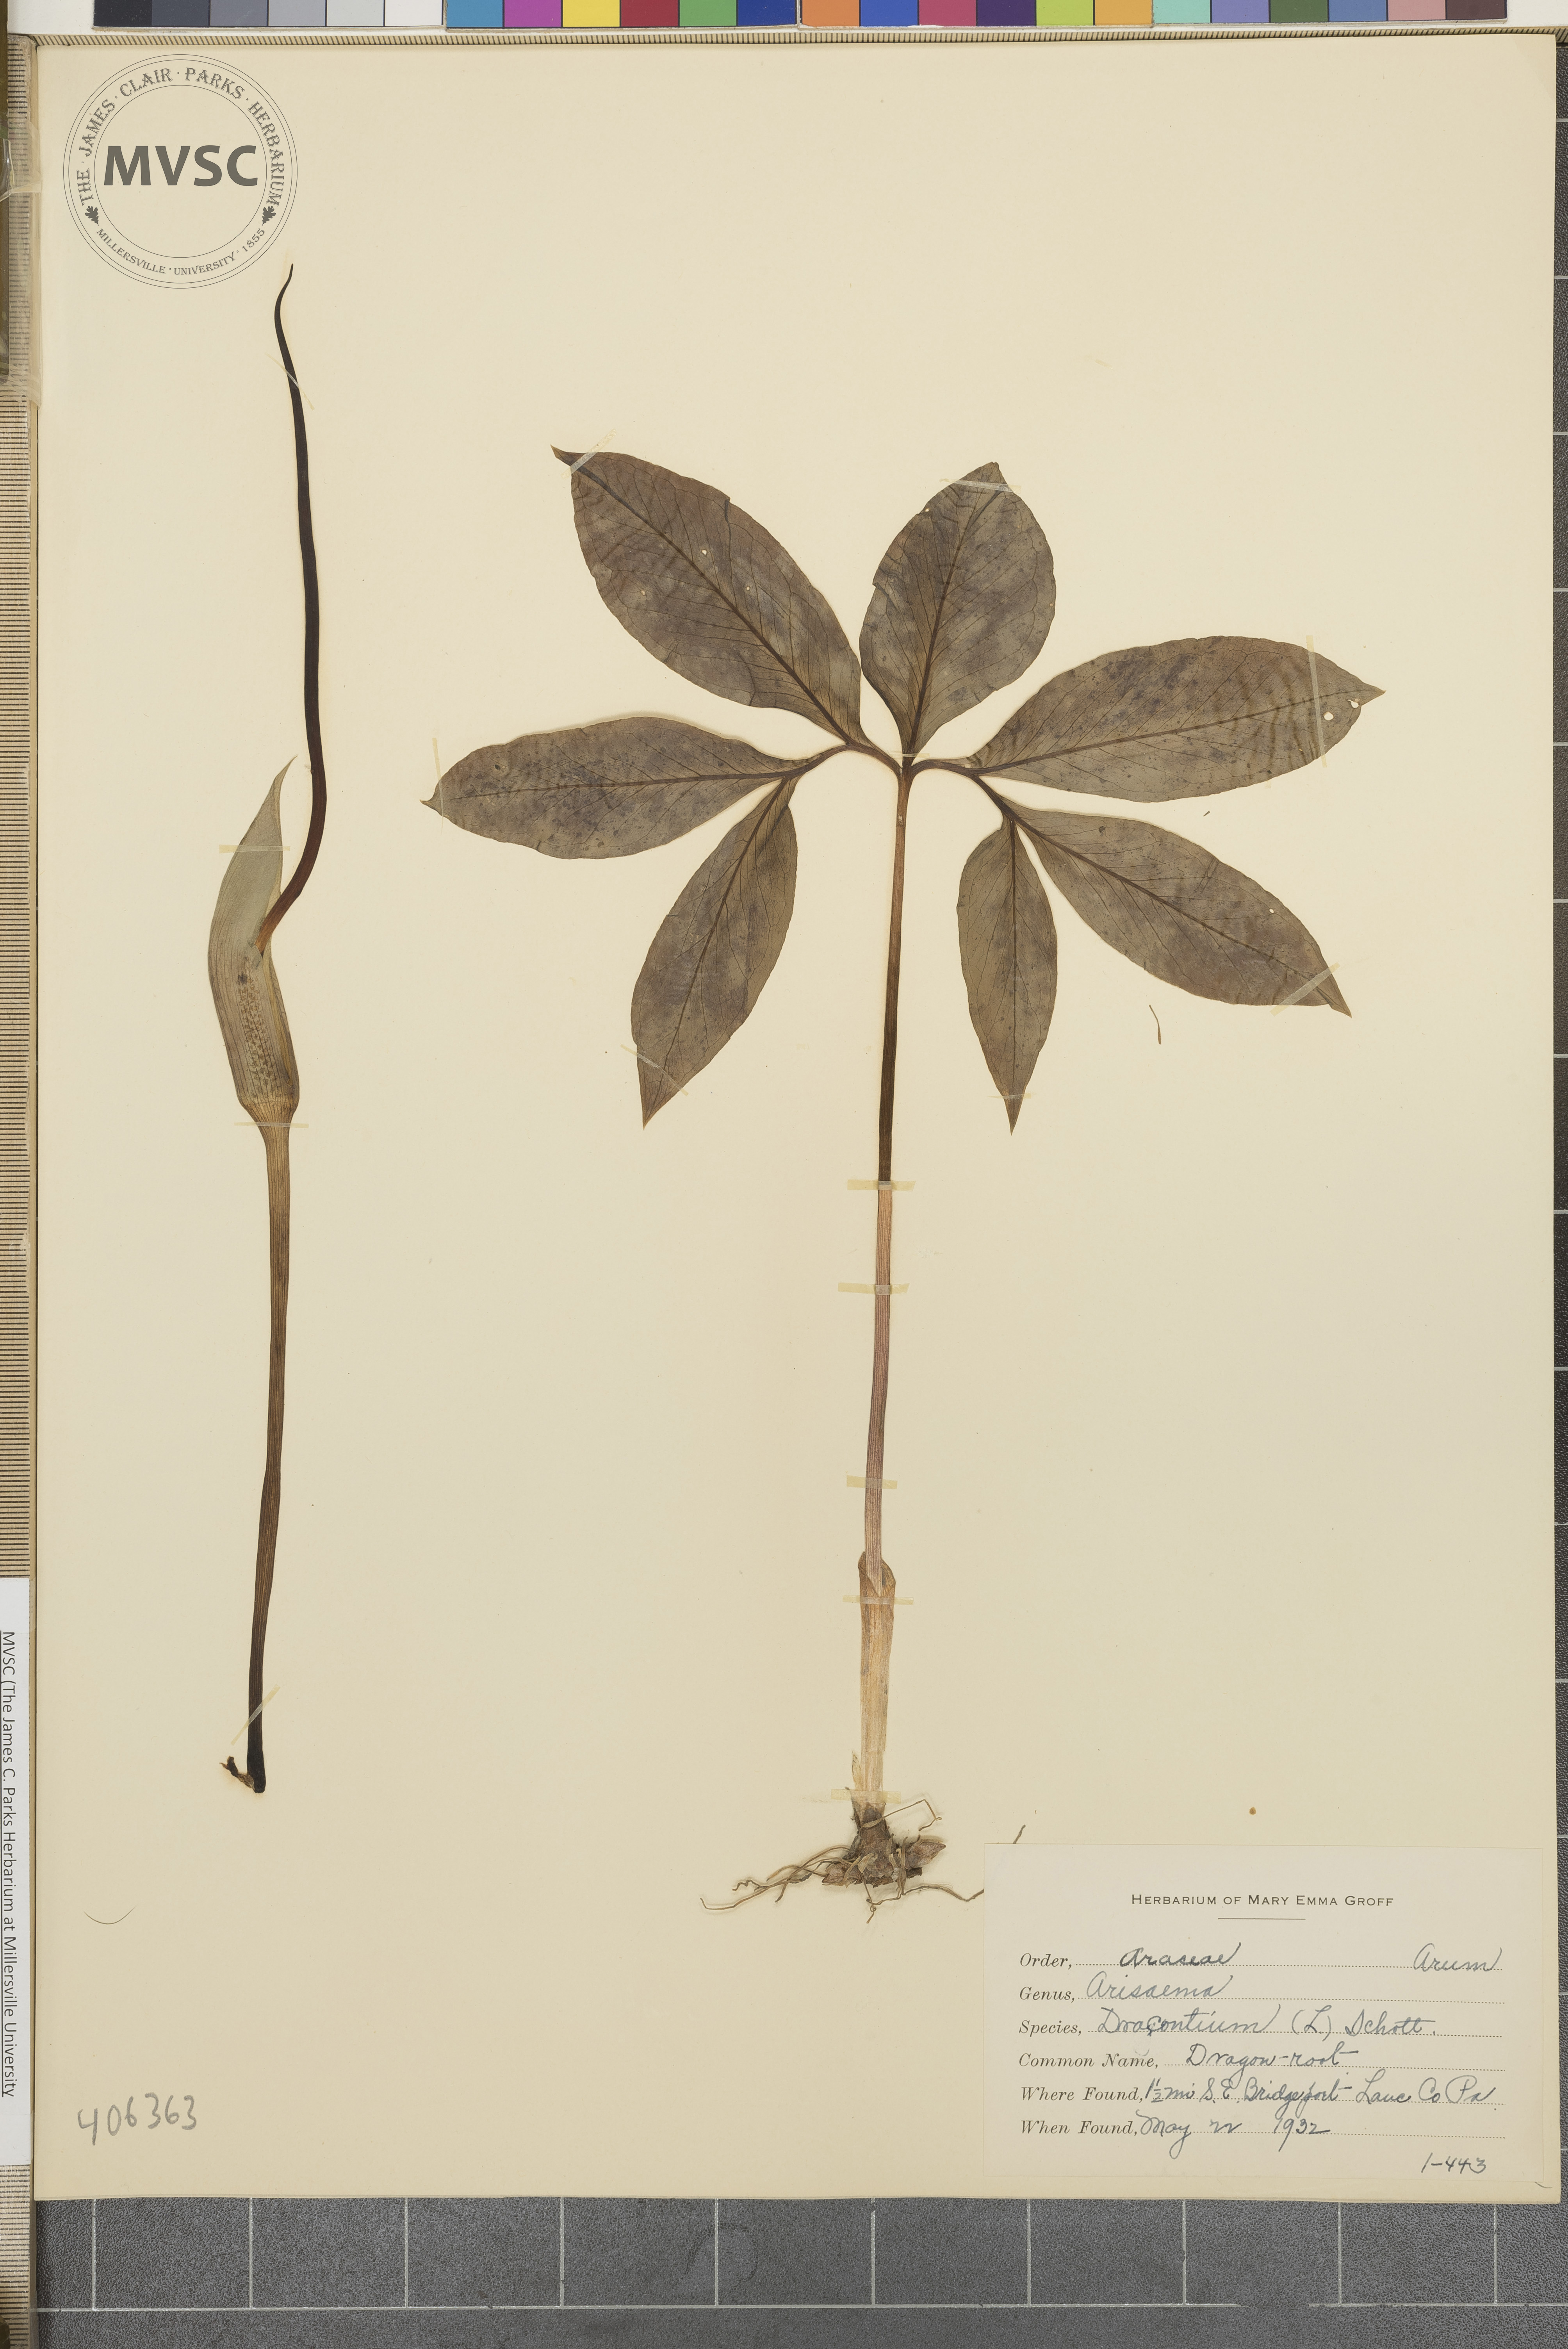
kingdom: Plantae
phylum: Tracheophyta
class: Liliopsida
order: Alismatales
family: Araceae
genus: Arisaema
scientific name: Arisaema dracontium
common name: Dragon-root
